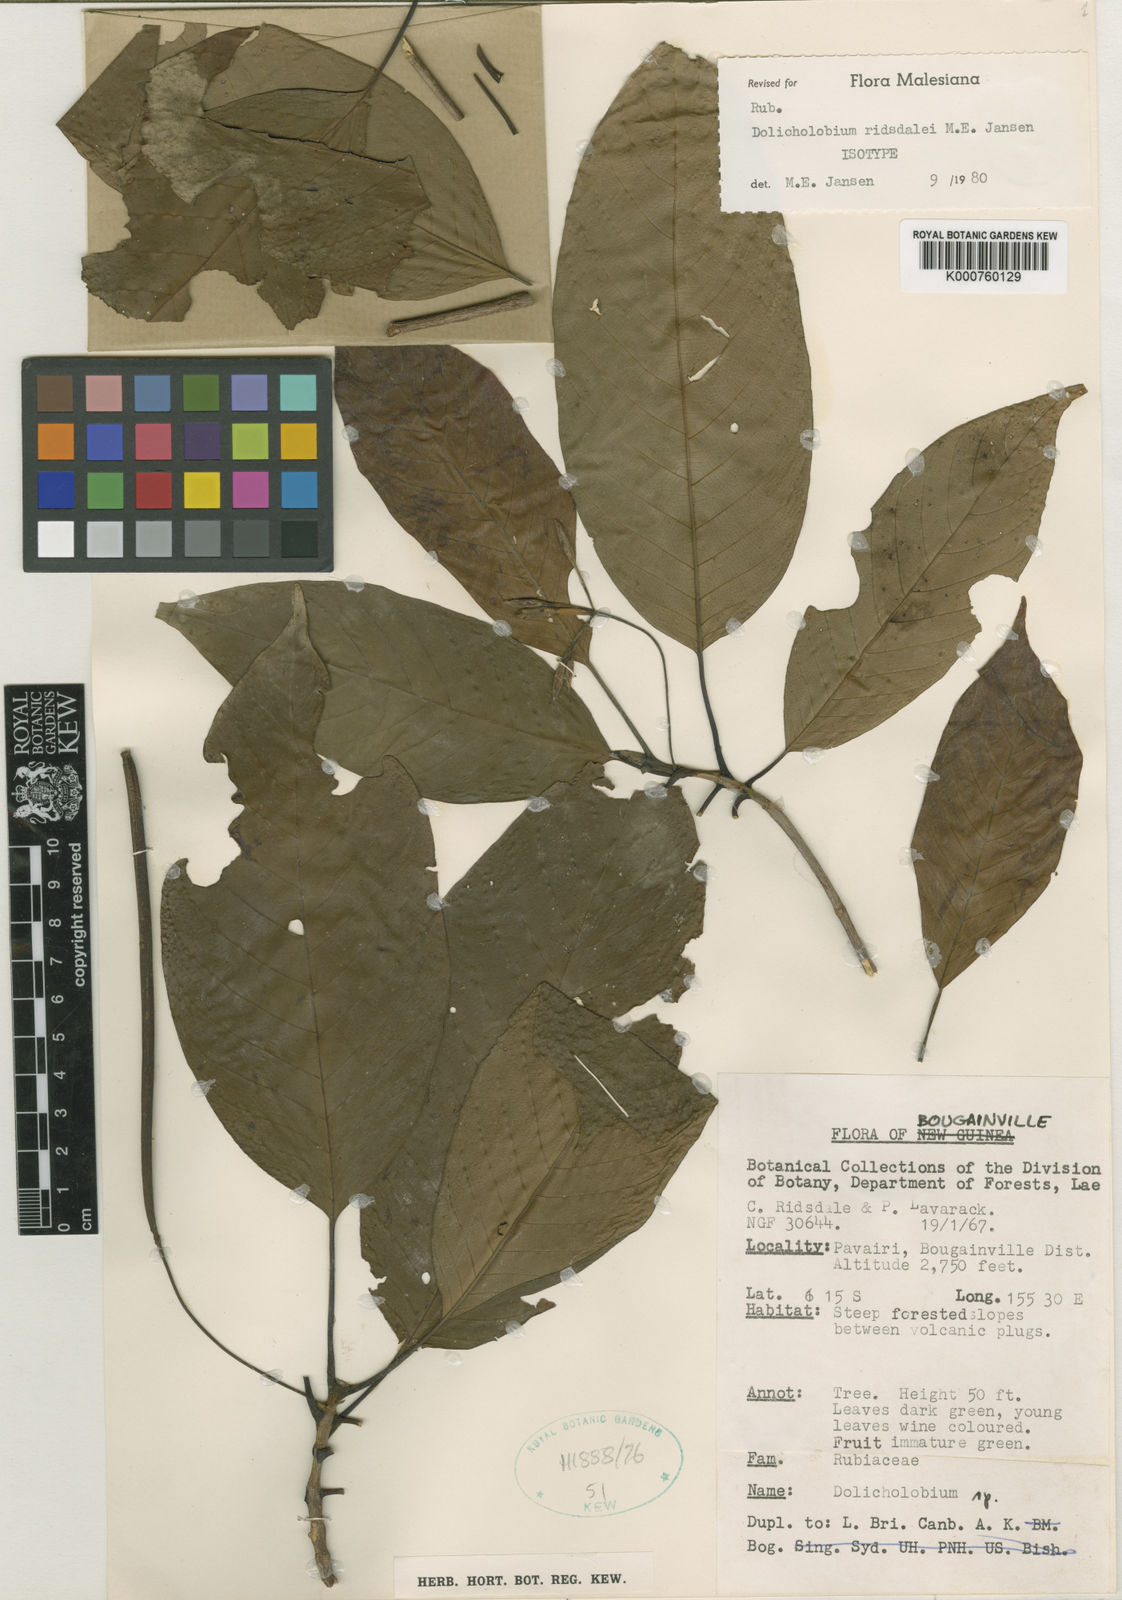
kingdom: Plantae
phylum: Tracheophyta
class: Magnoliopsida
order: Gentianales
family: Rubiaceae
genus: Dolicholobium
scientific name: Dolicholobium ridsdalei
